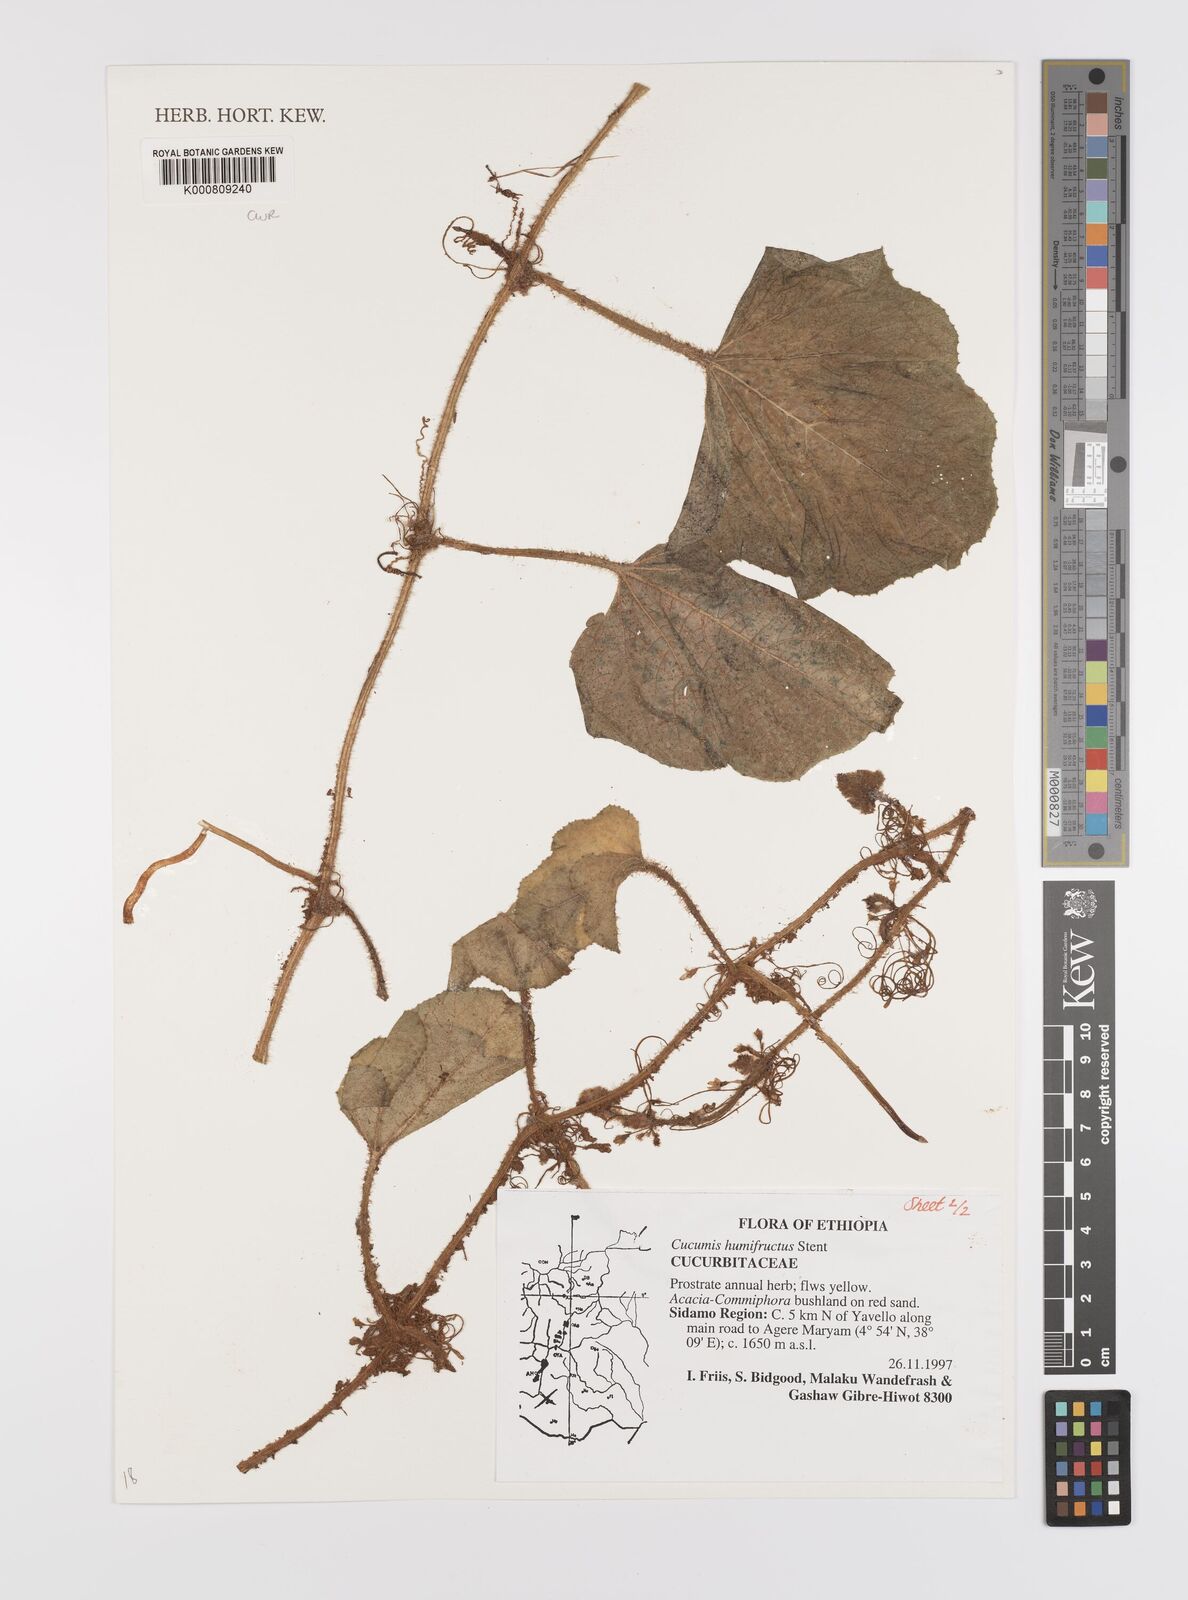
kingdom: Plantae
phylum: Tracheophyta
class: Magnoliopsida
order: Cucurbitales
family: Cucurbitaceae
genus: Cucumis
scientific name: Cucumis
